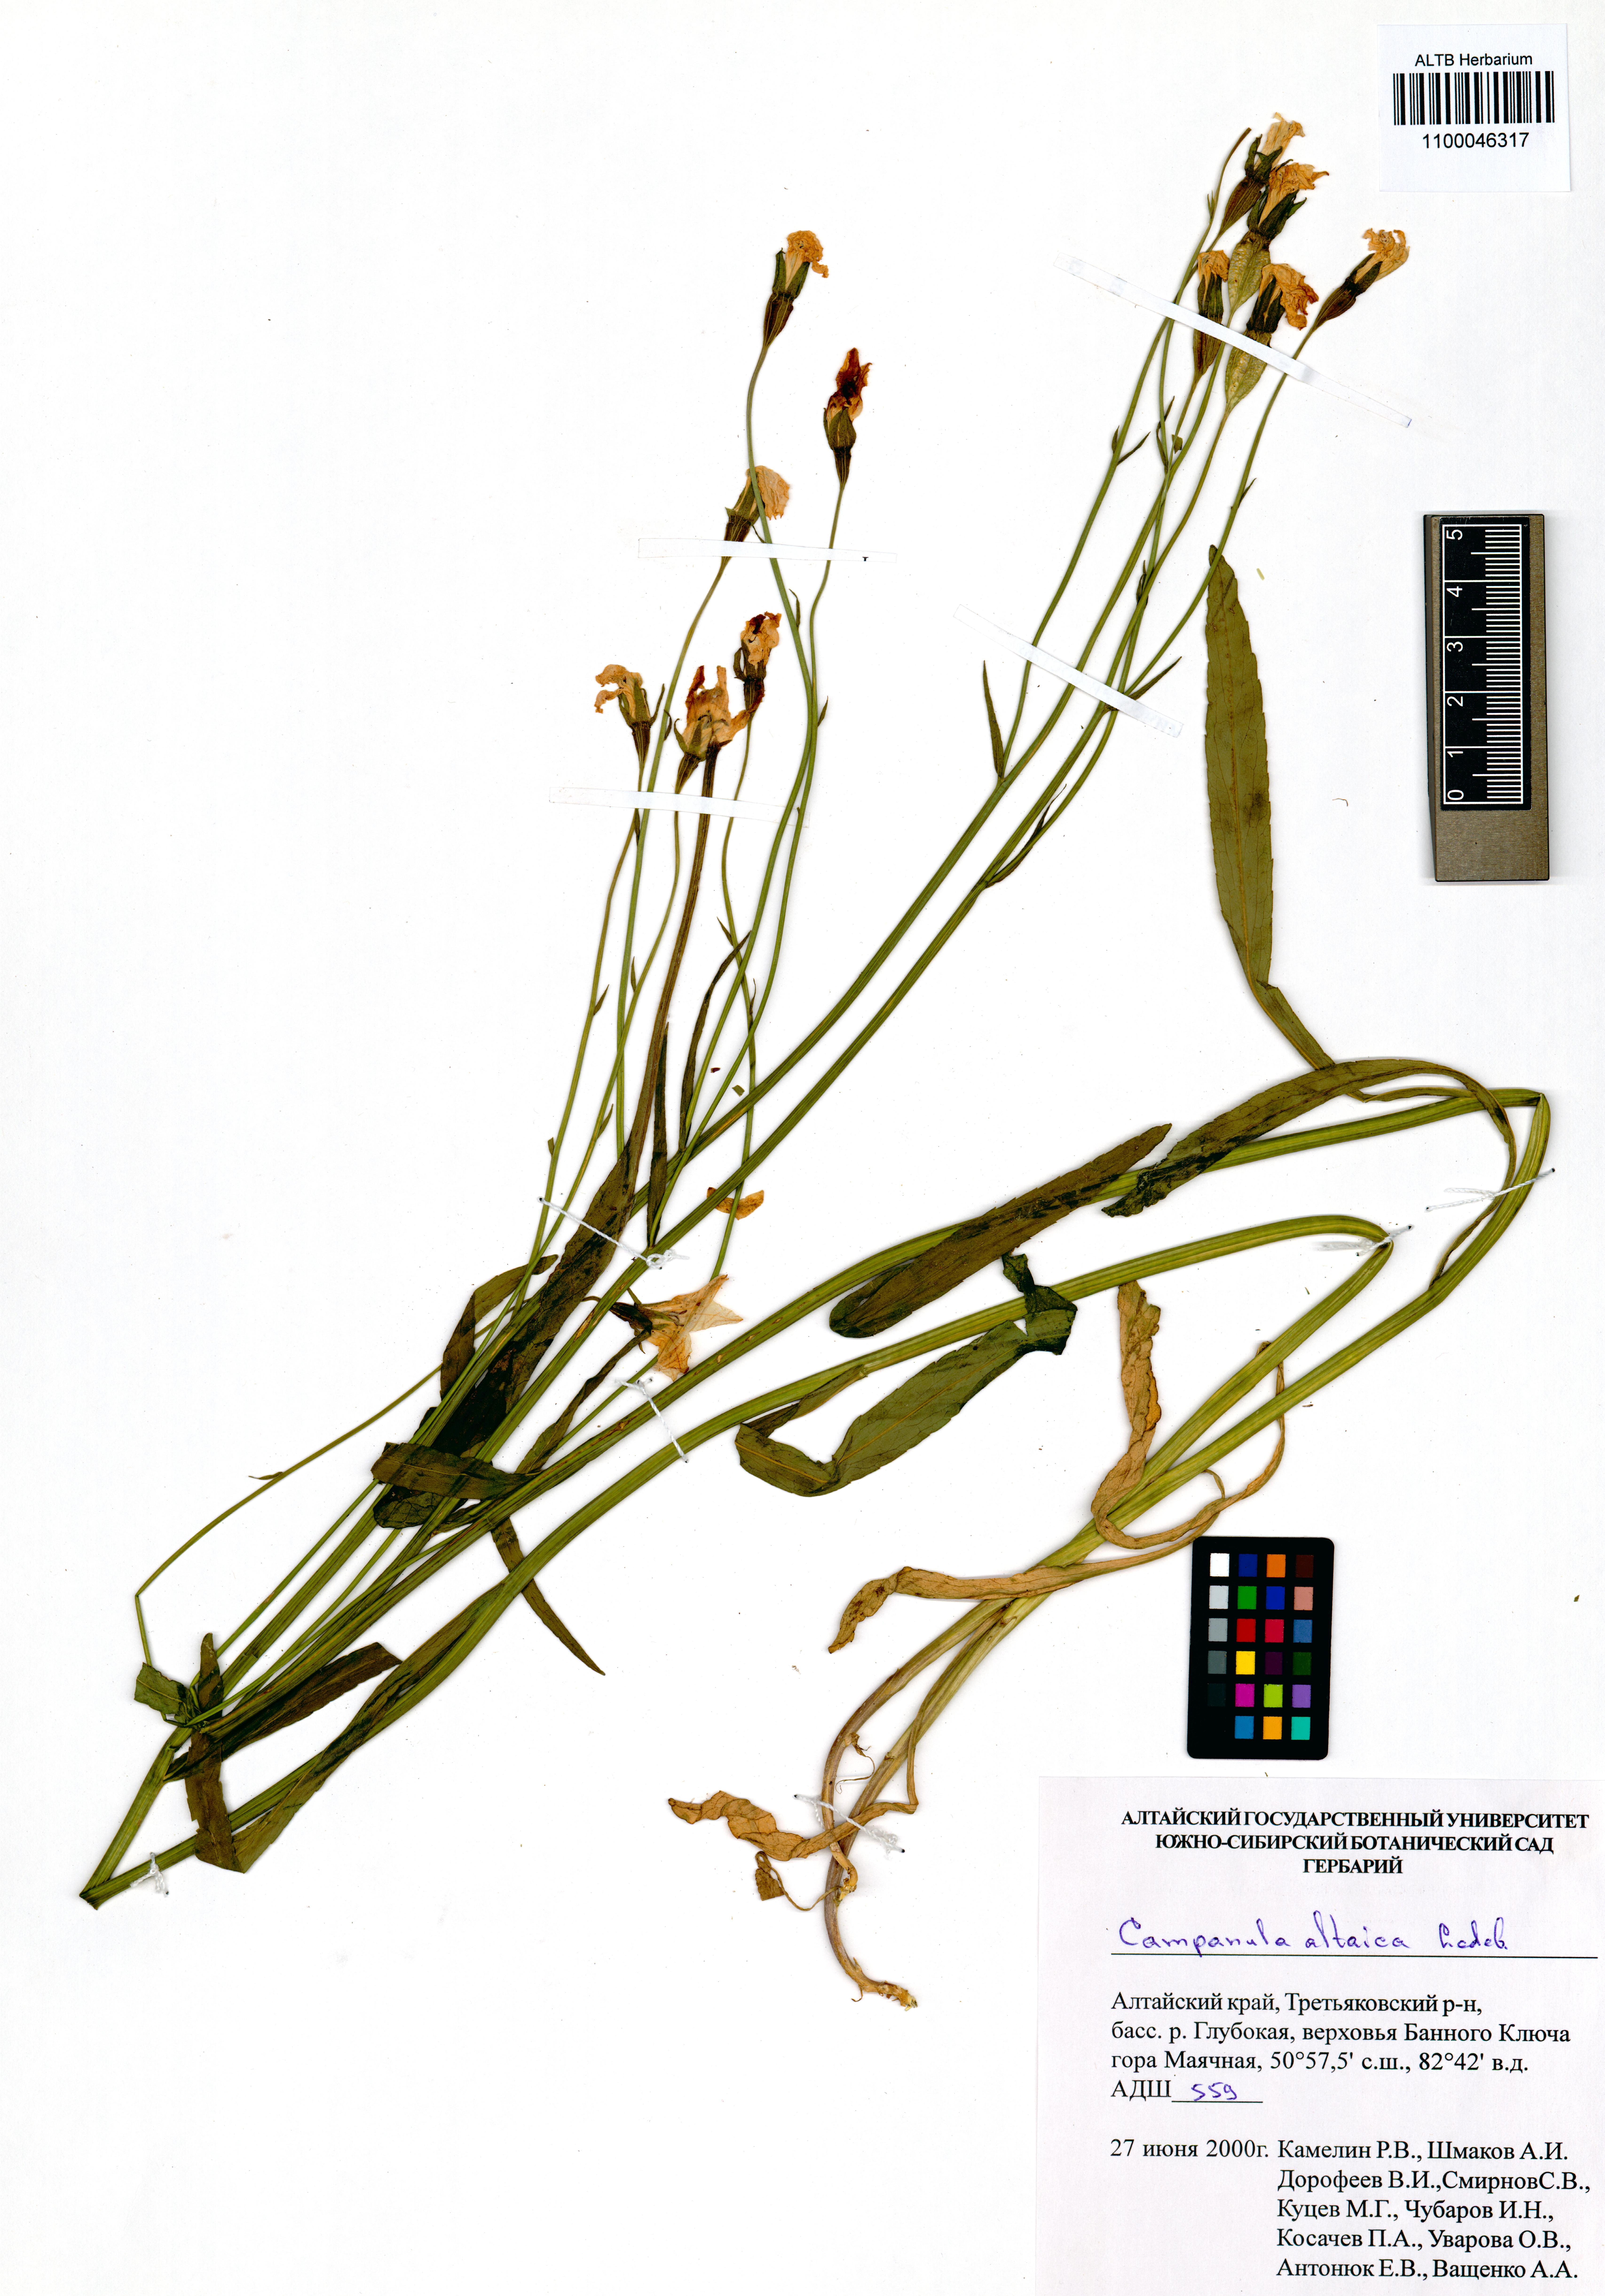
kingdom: Plantae
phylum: Tracheophyta
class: Magnoliopsida
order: Asterales
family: Campanulaceae
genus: Campanula
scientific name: Campanula stevenii
